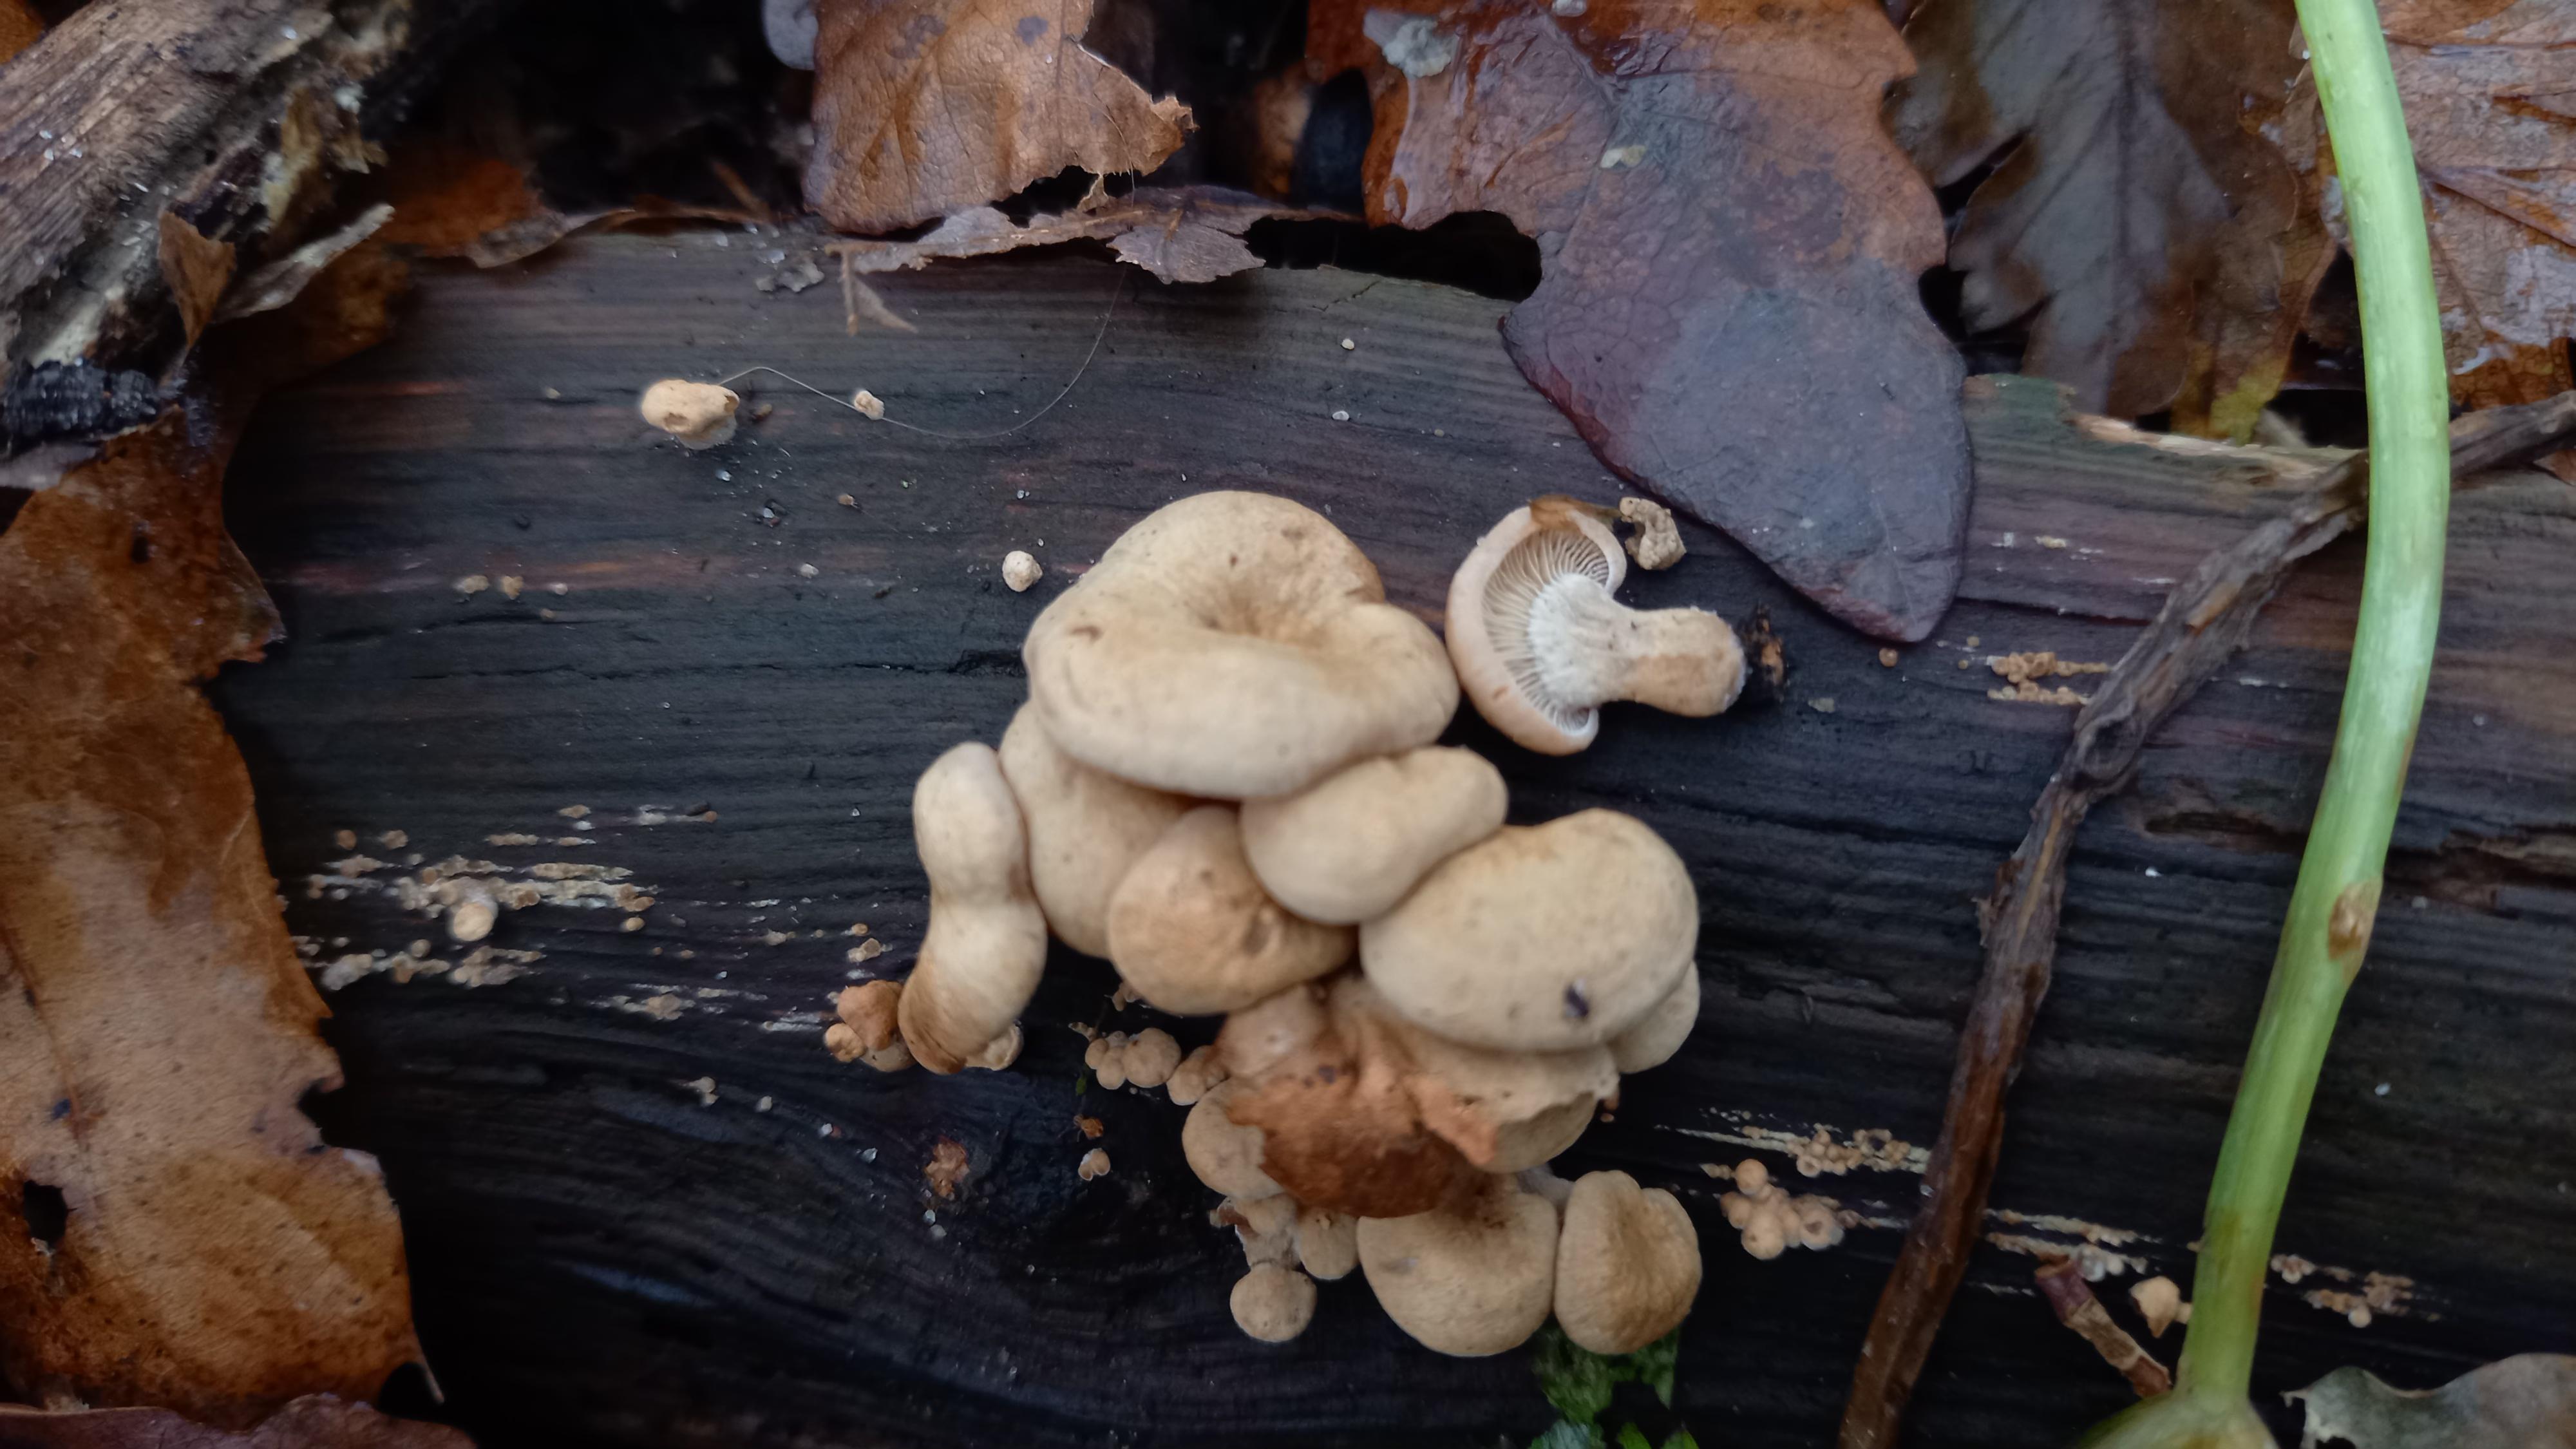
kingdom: Fungi
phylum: Basidiomycota
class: Agaricomycetes
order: Agaricales
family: Mycenaceae
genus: Panellus
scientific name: Panellus stipticus
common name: kliddet epaulethat
